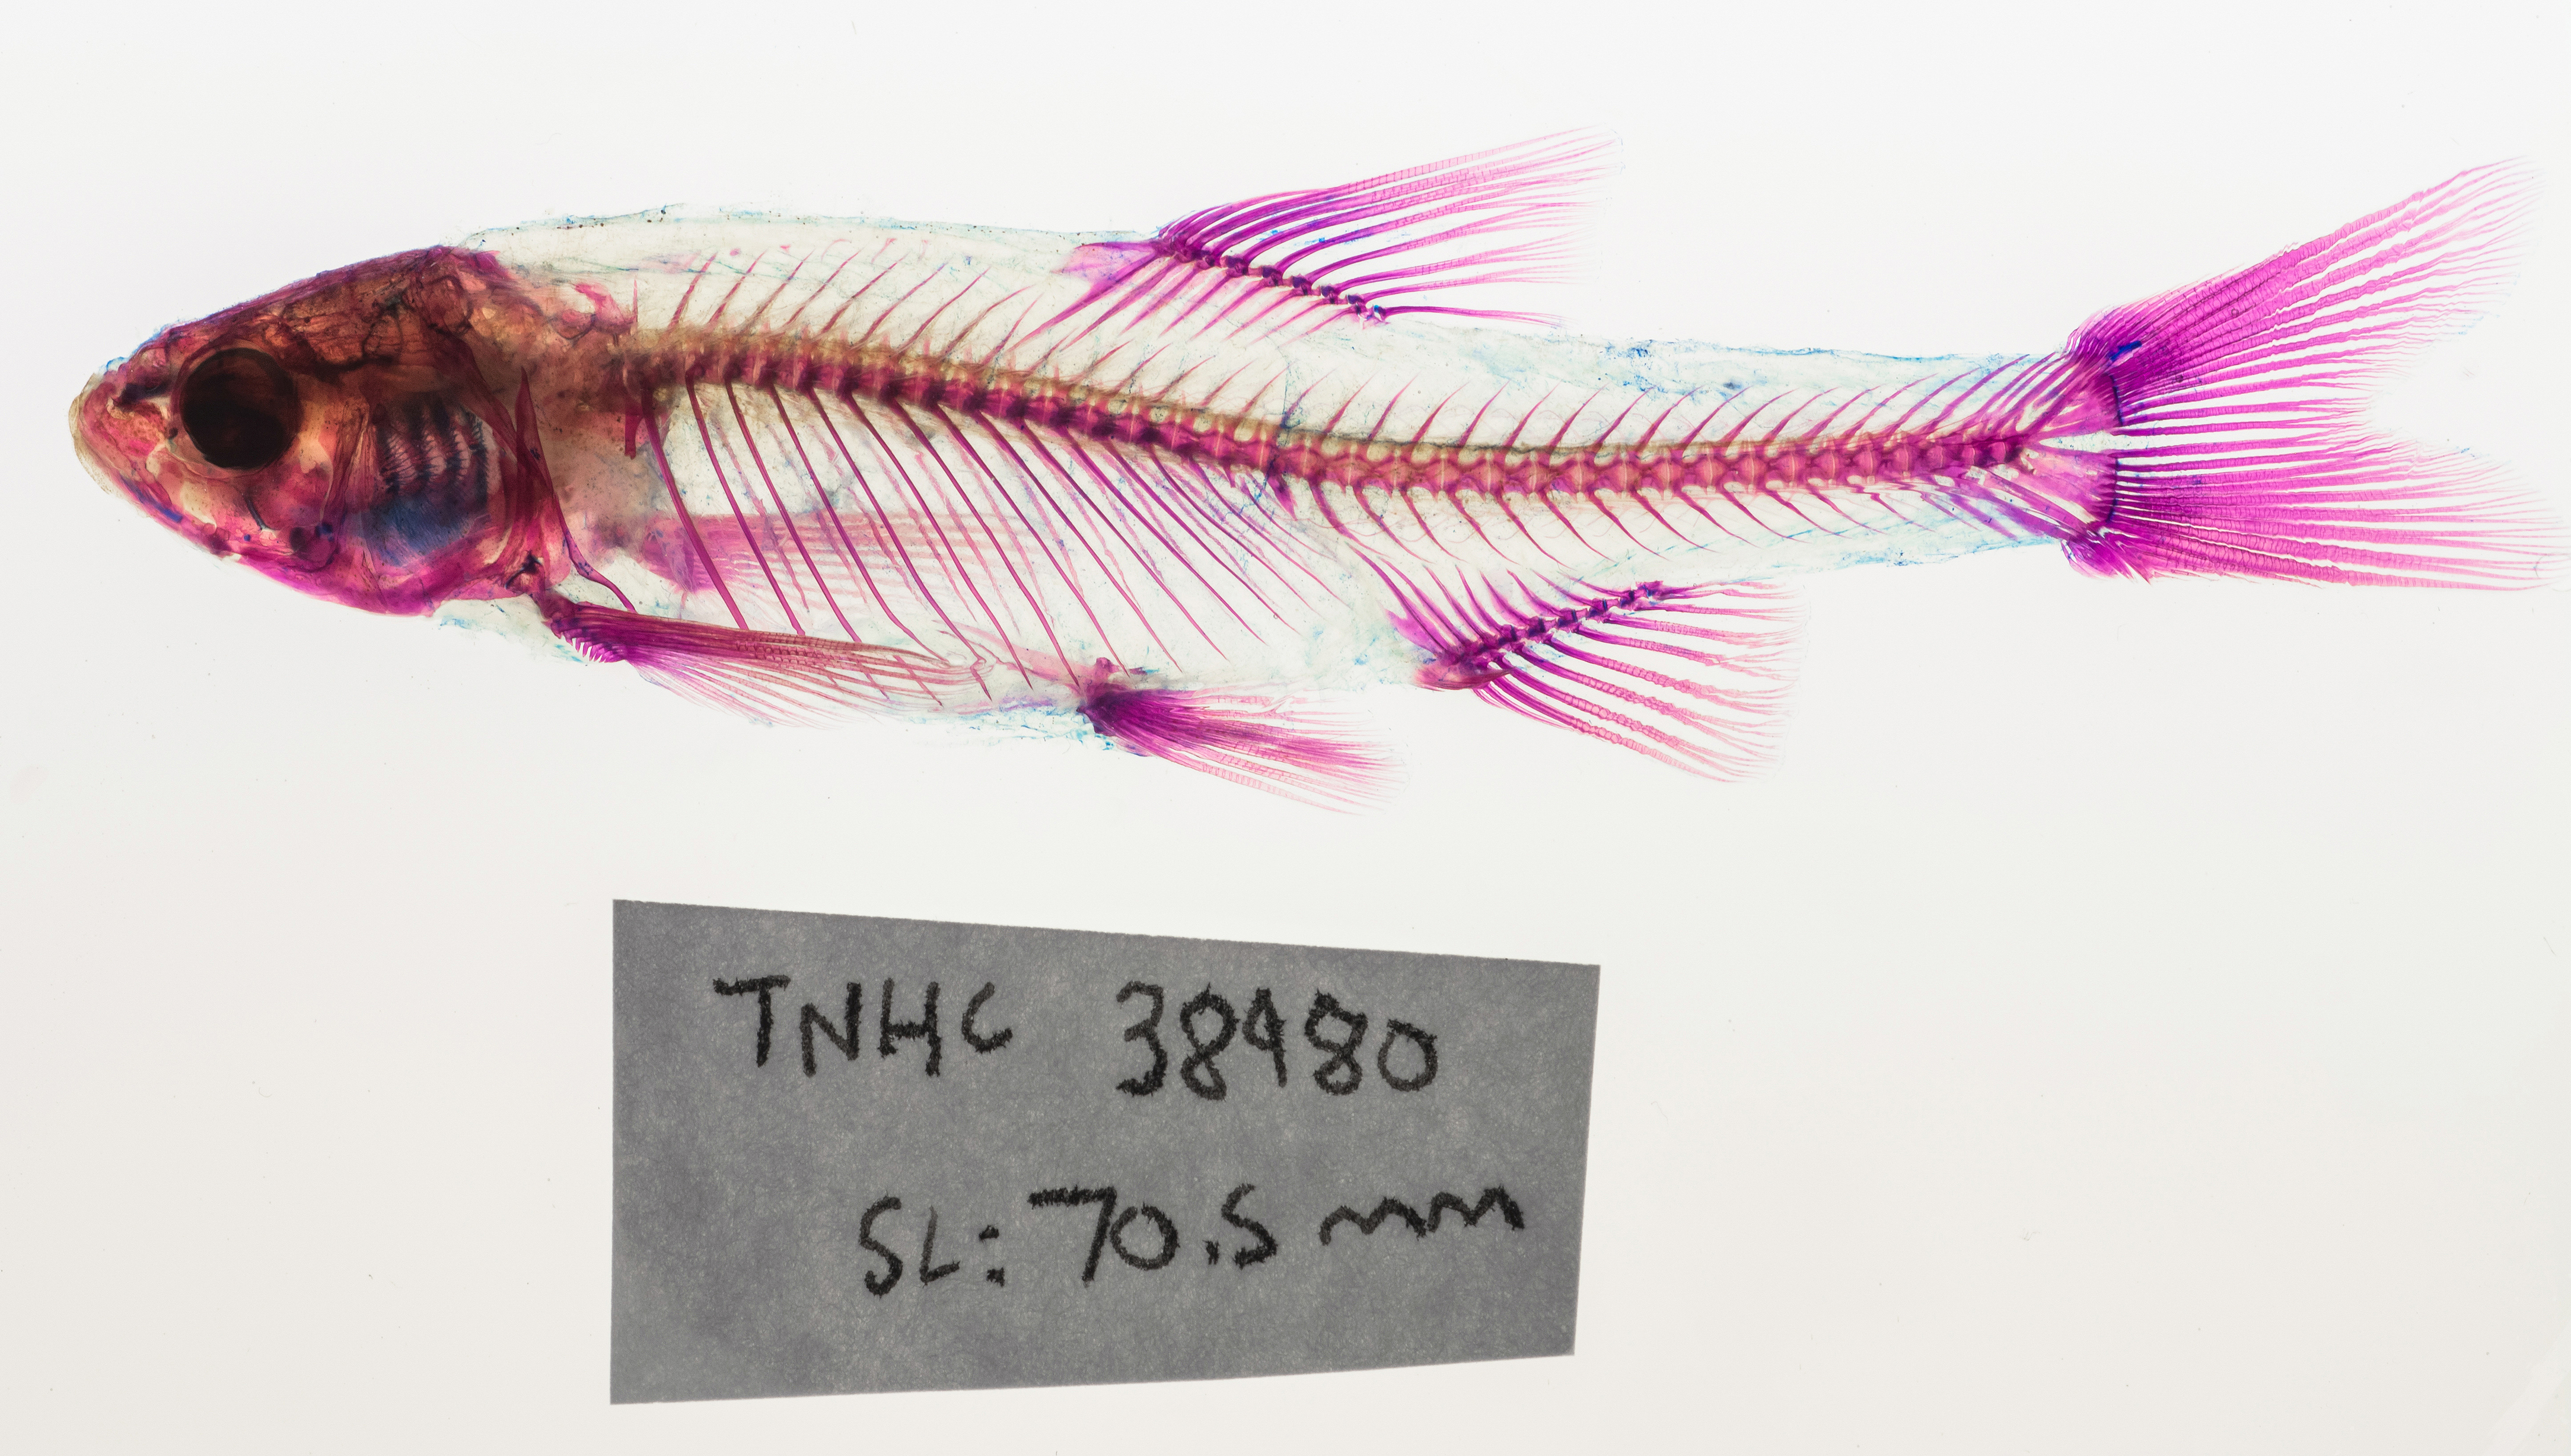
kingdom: Animalia
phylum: Chordata
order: Cypriniformes
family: Cyprinidae
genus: Gila
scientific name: Gila ditaenia
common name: Sonora chub
